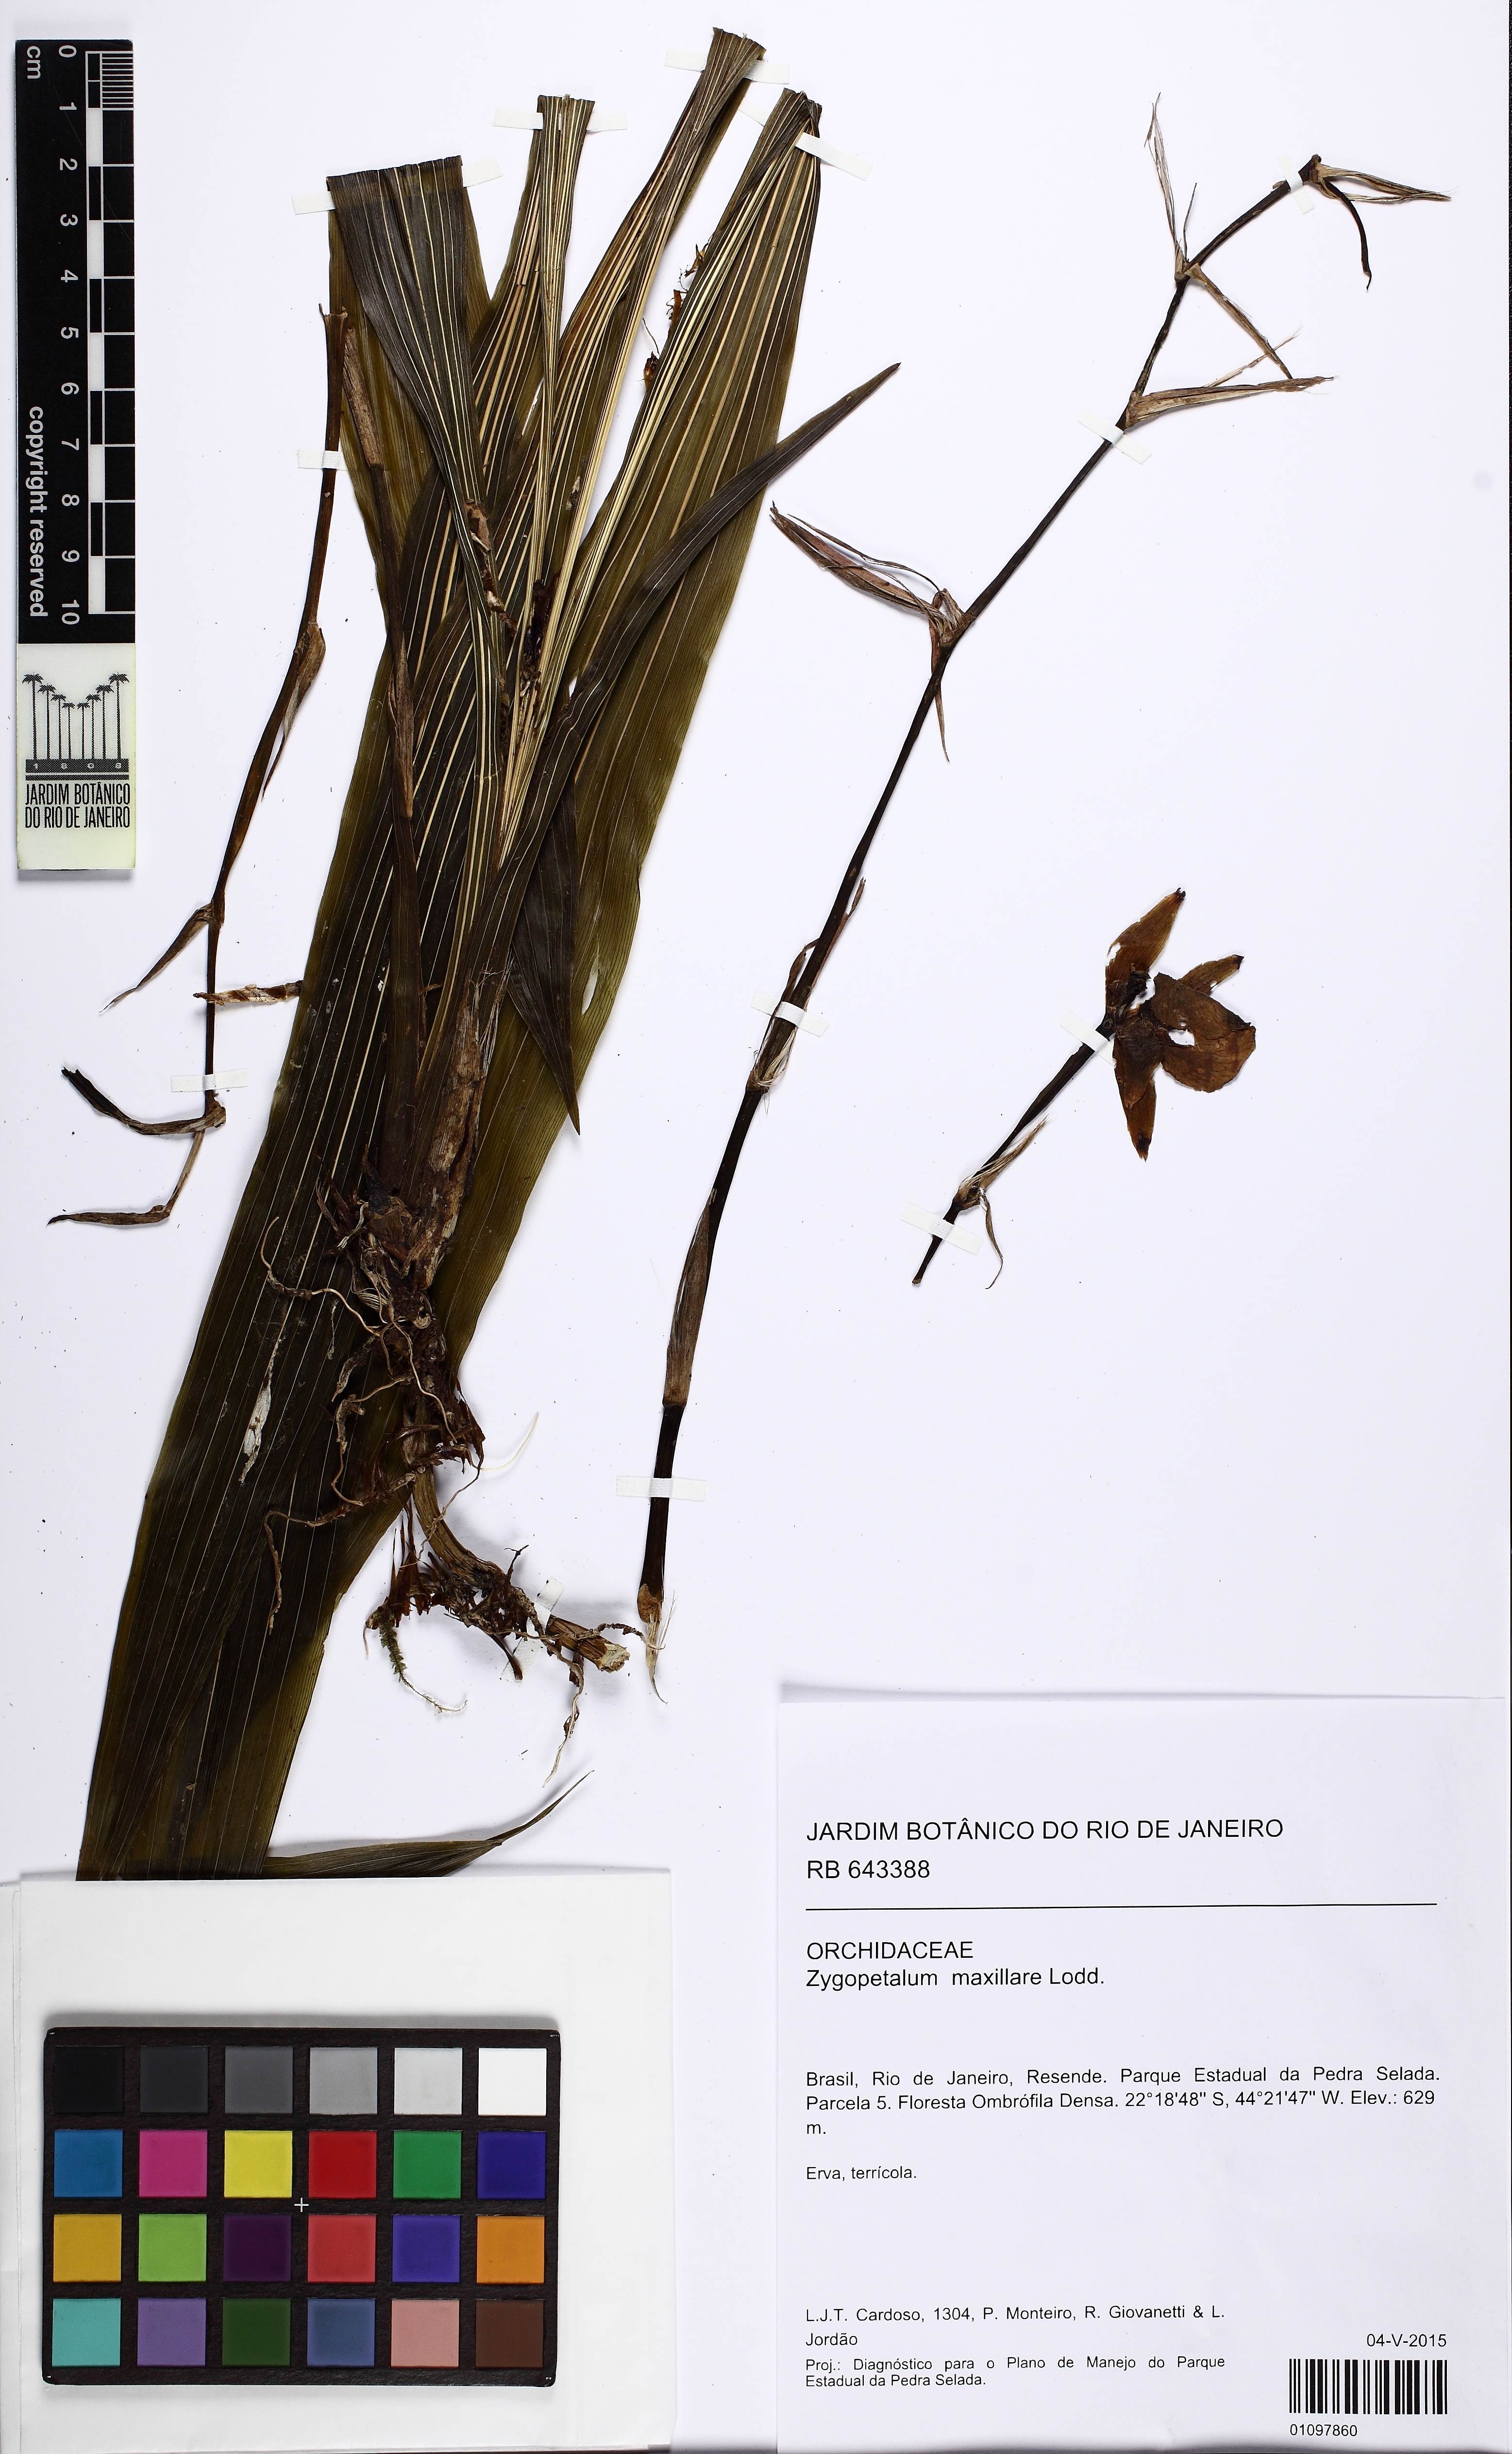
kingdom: Plantae
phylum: Tracheophyta
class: Liliopsida
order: Asparagales
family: Orchidaceae
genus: Zygopetalum
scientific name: Zygopetalum maxillare
